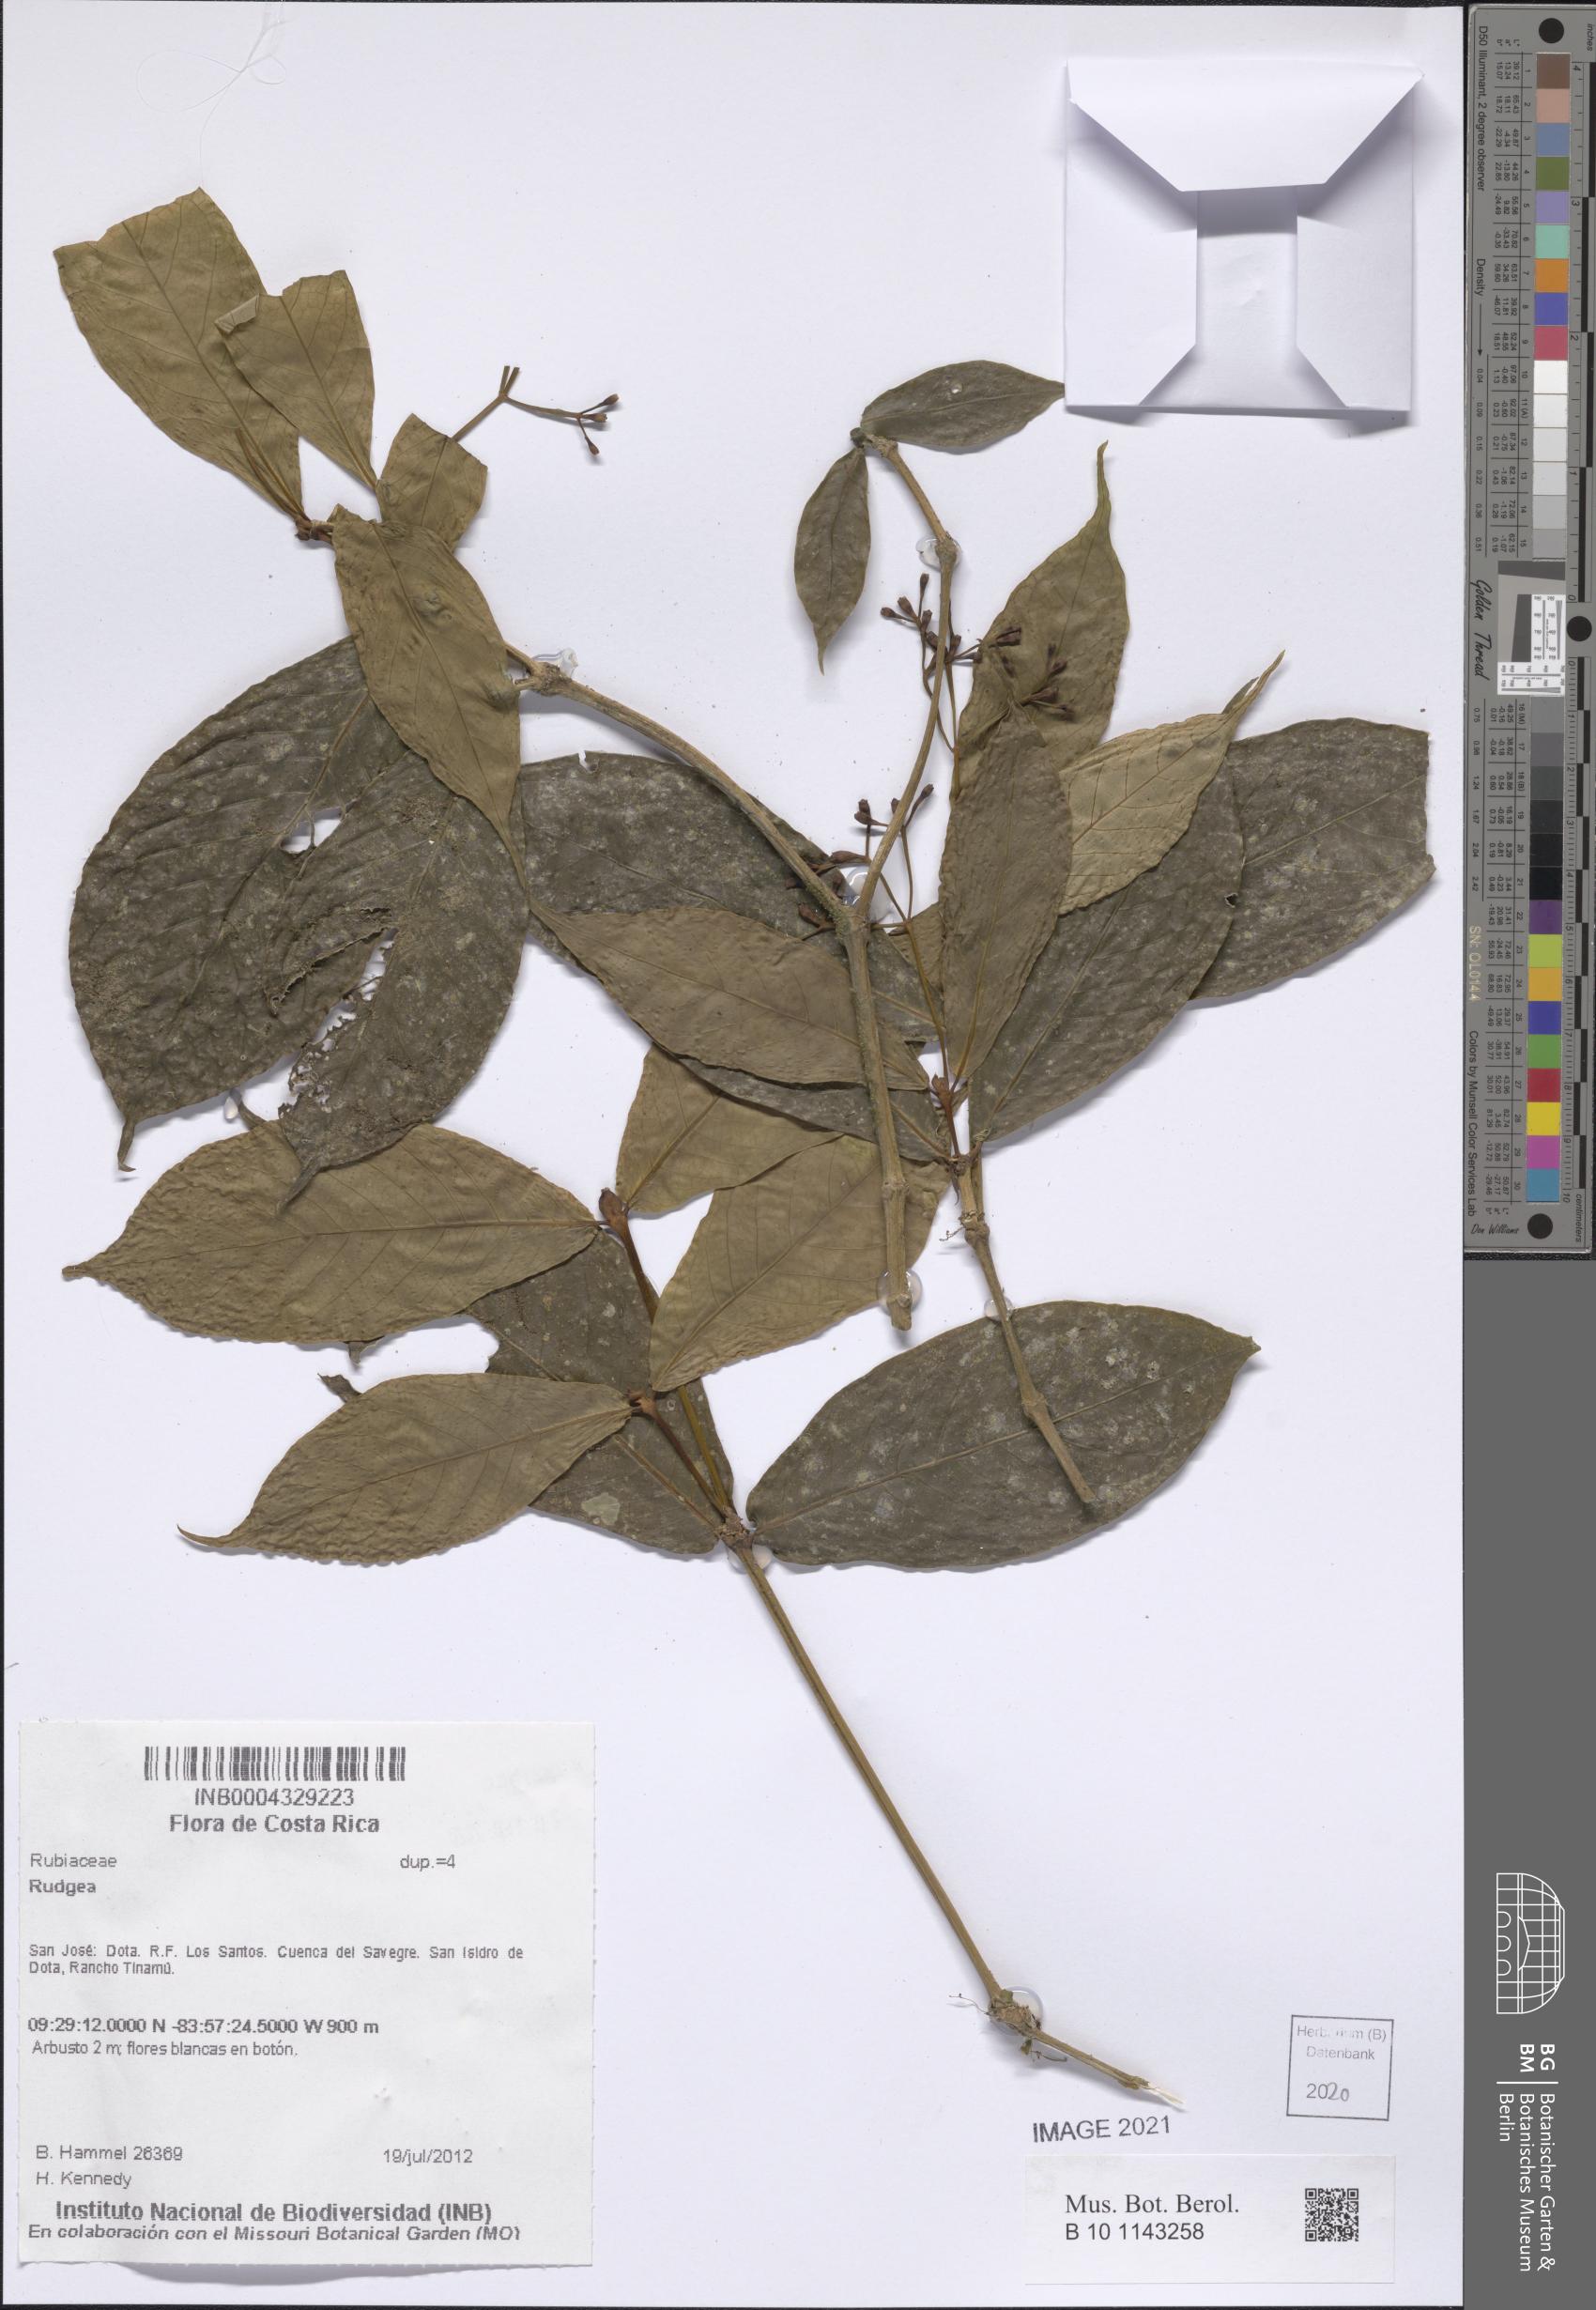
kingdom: Plantae
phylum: Tracheophyta
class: Magnoliopsida
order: Gentianales
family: Rubiaceae
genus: Rudgea
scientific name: Rudgea
